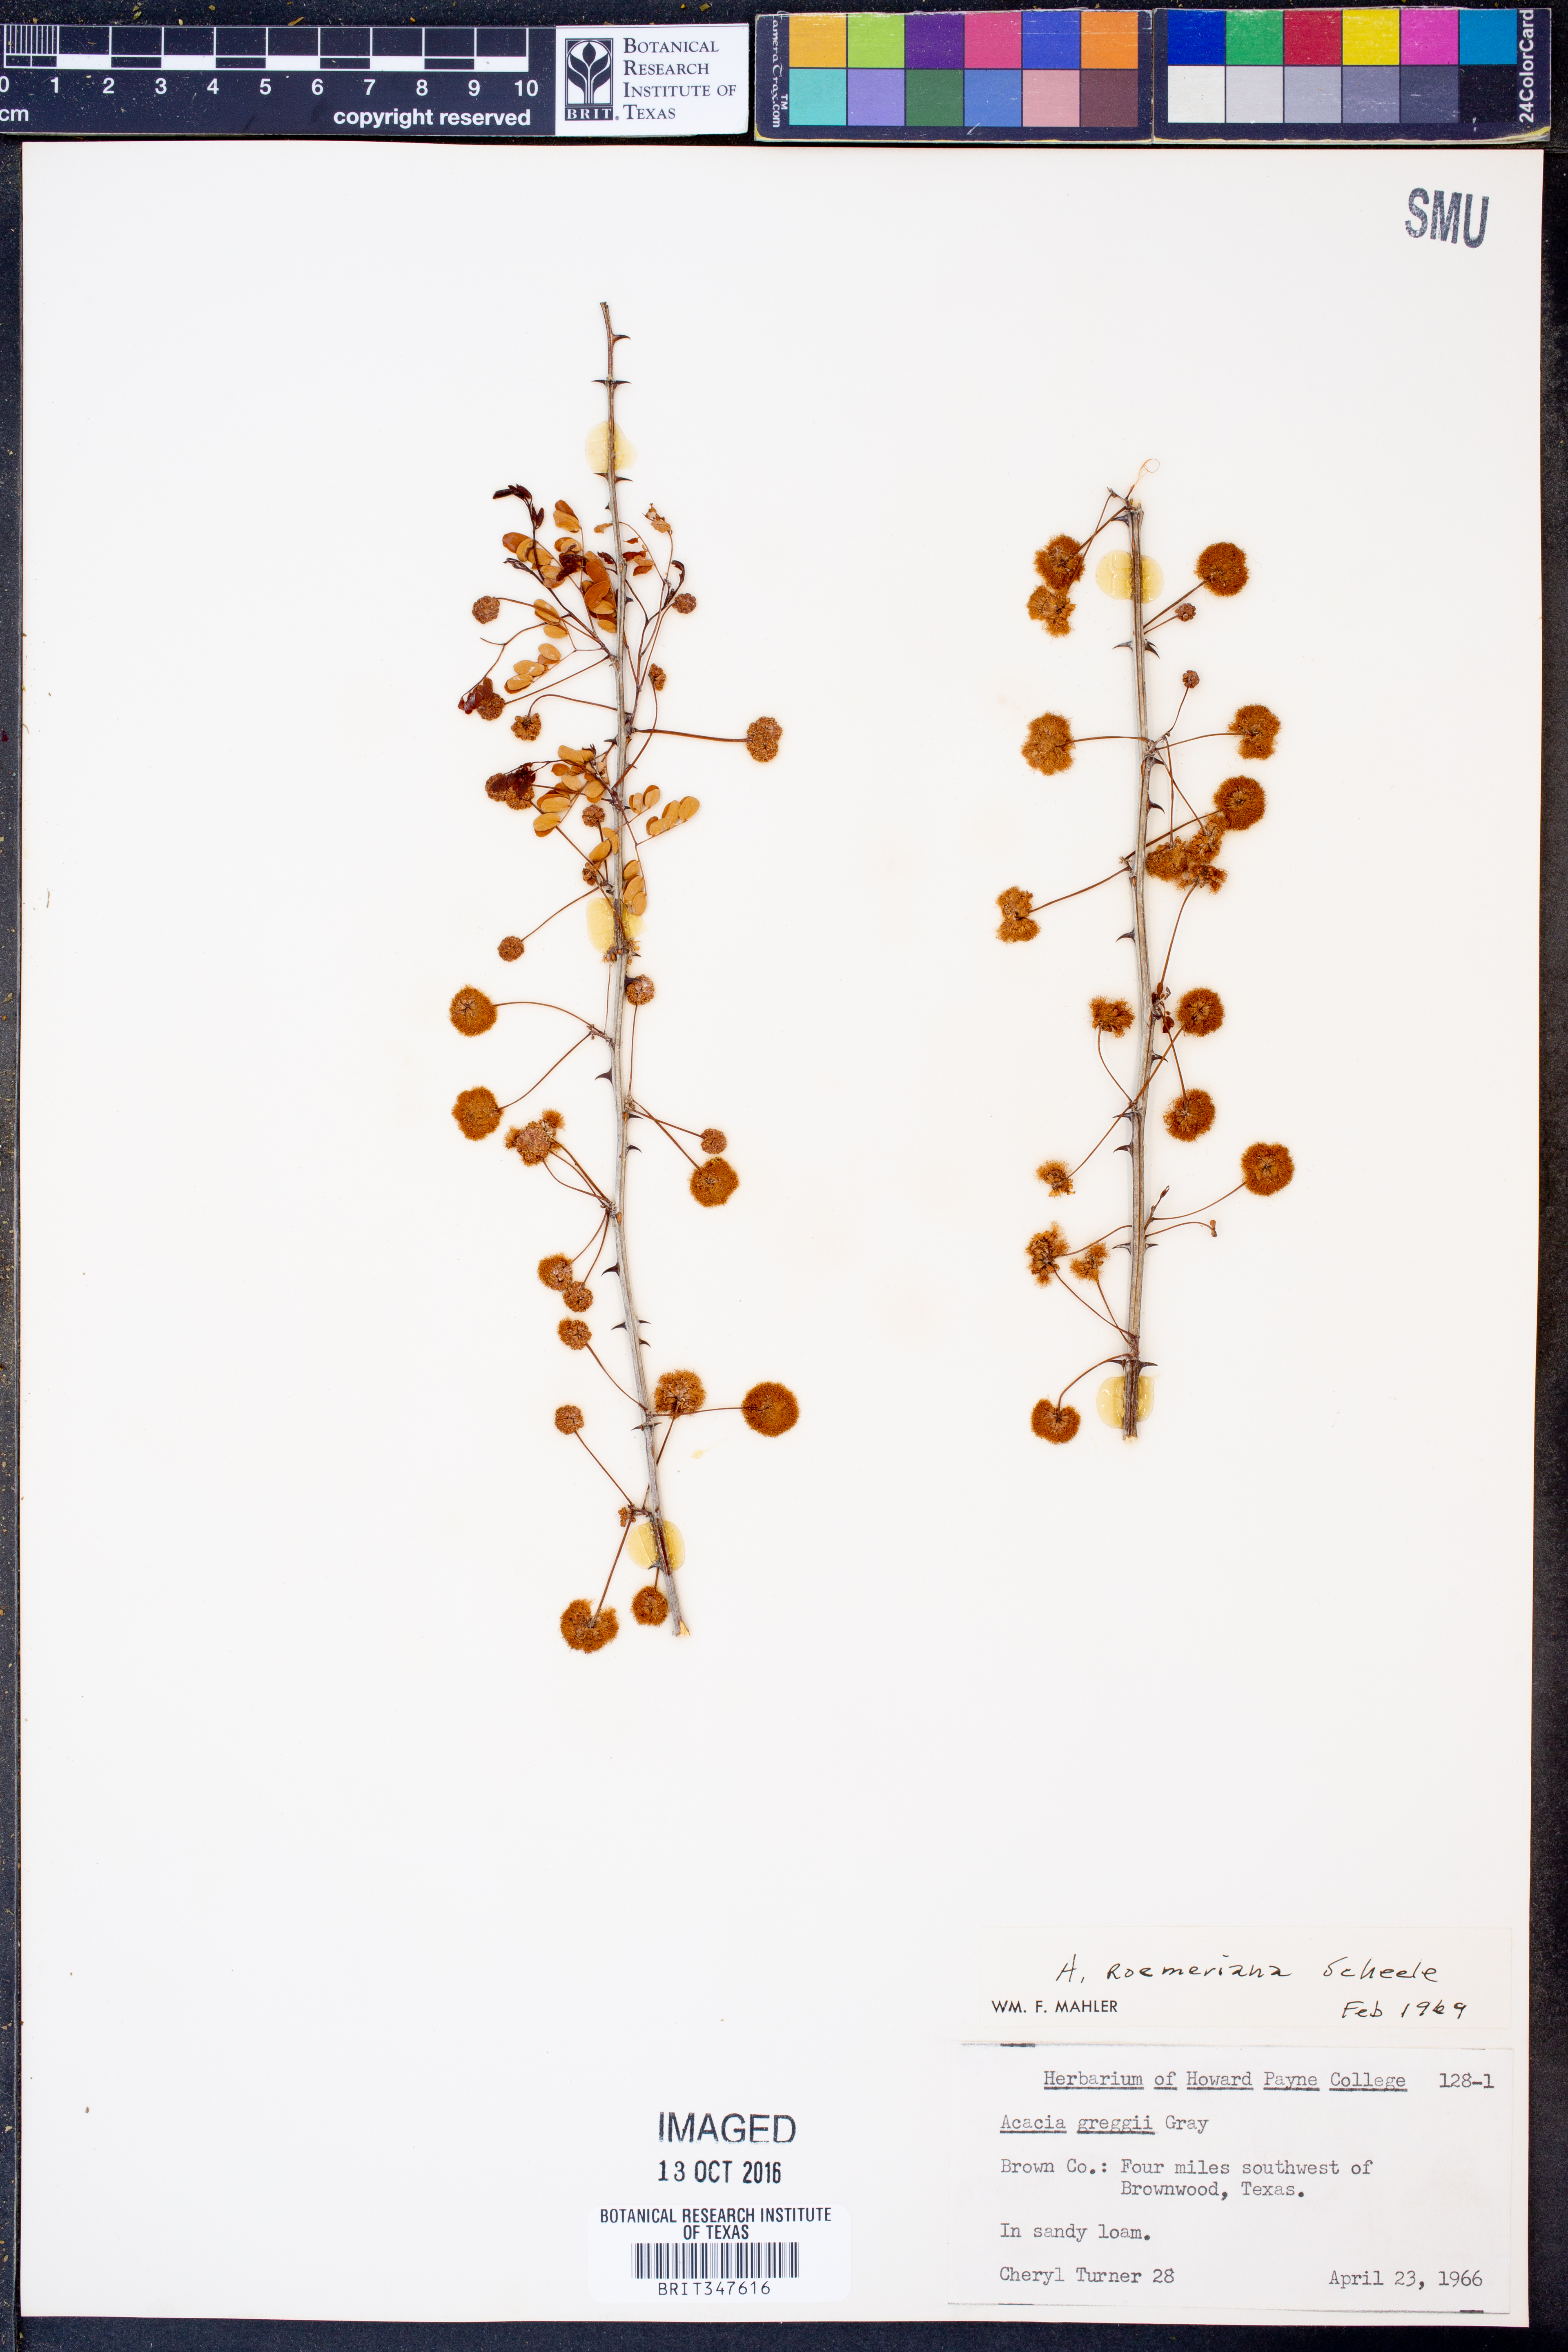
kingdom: Plantae
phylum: Tracheophyta
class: Magnoliopsida
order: Fabales
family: Fabaceae
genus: Senegalia
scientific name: Senegalia roemeriana
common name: Roemer's acacia
